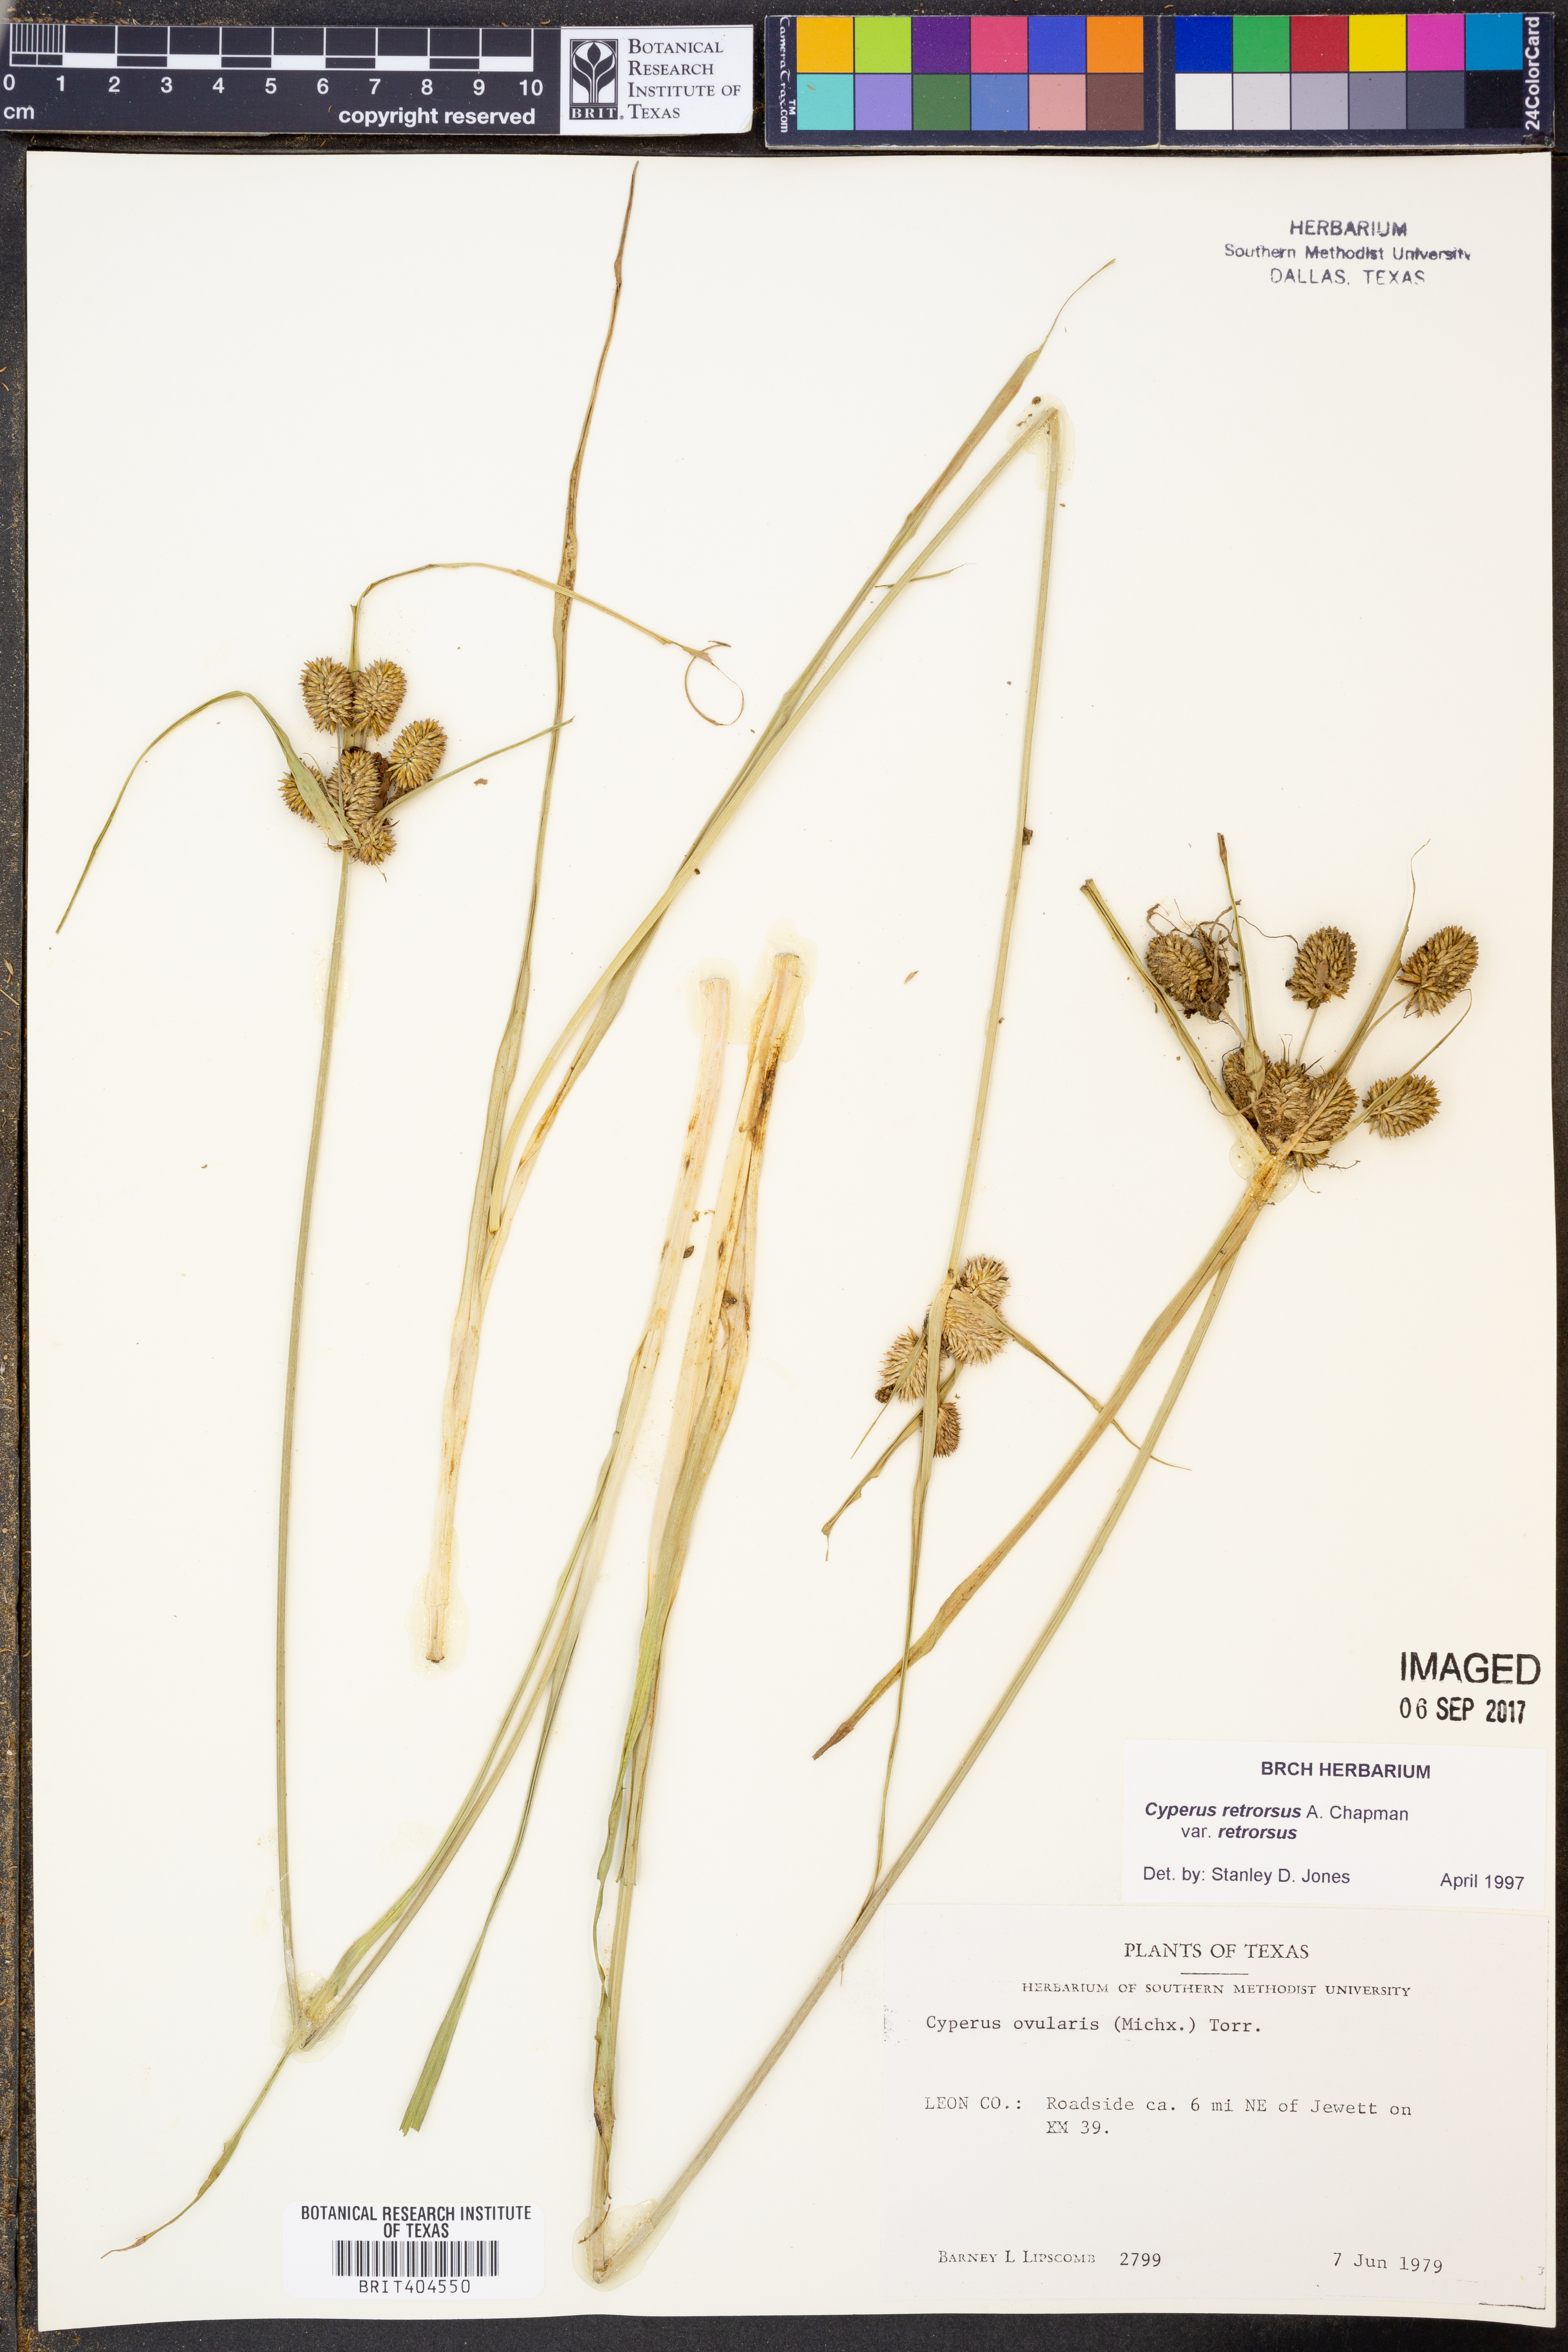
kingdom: Plantae
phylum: Tracheophyta
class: Liliopsida
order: Poales
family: Cyperaceae
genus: Cyperus
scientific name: Cyperus retrorsus
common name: Pinebarren flat sedge
